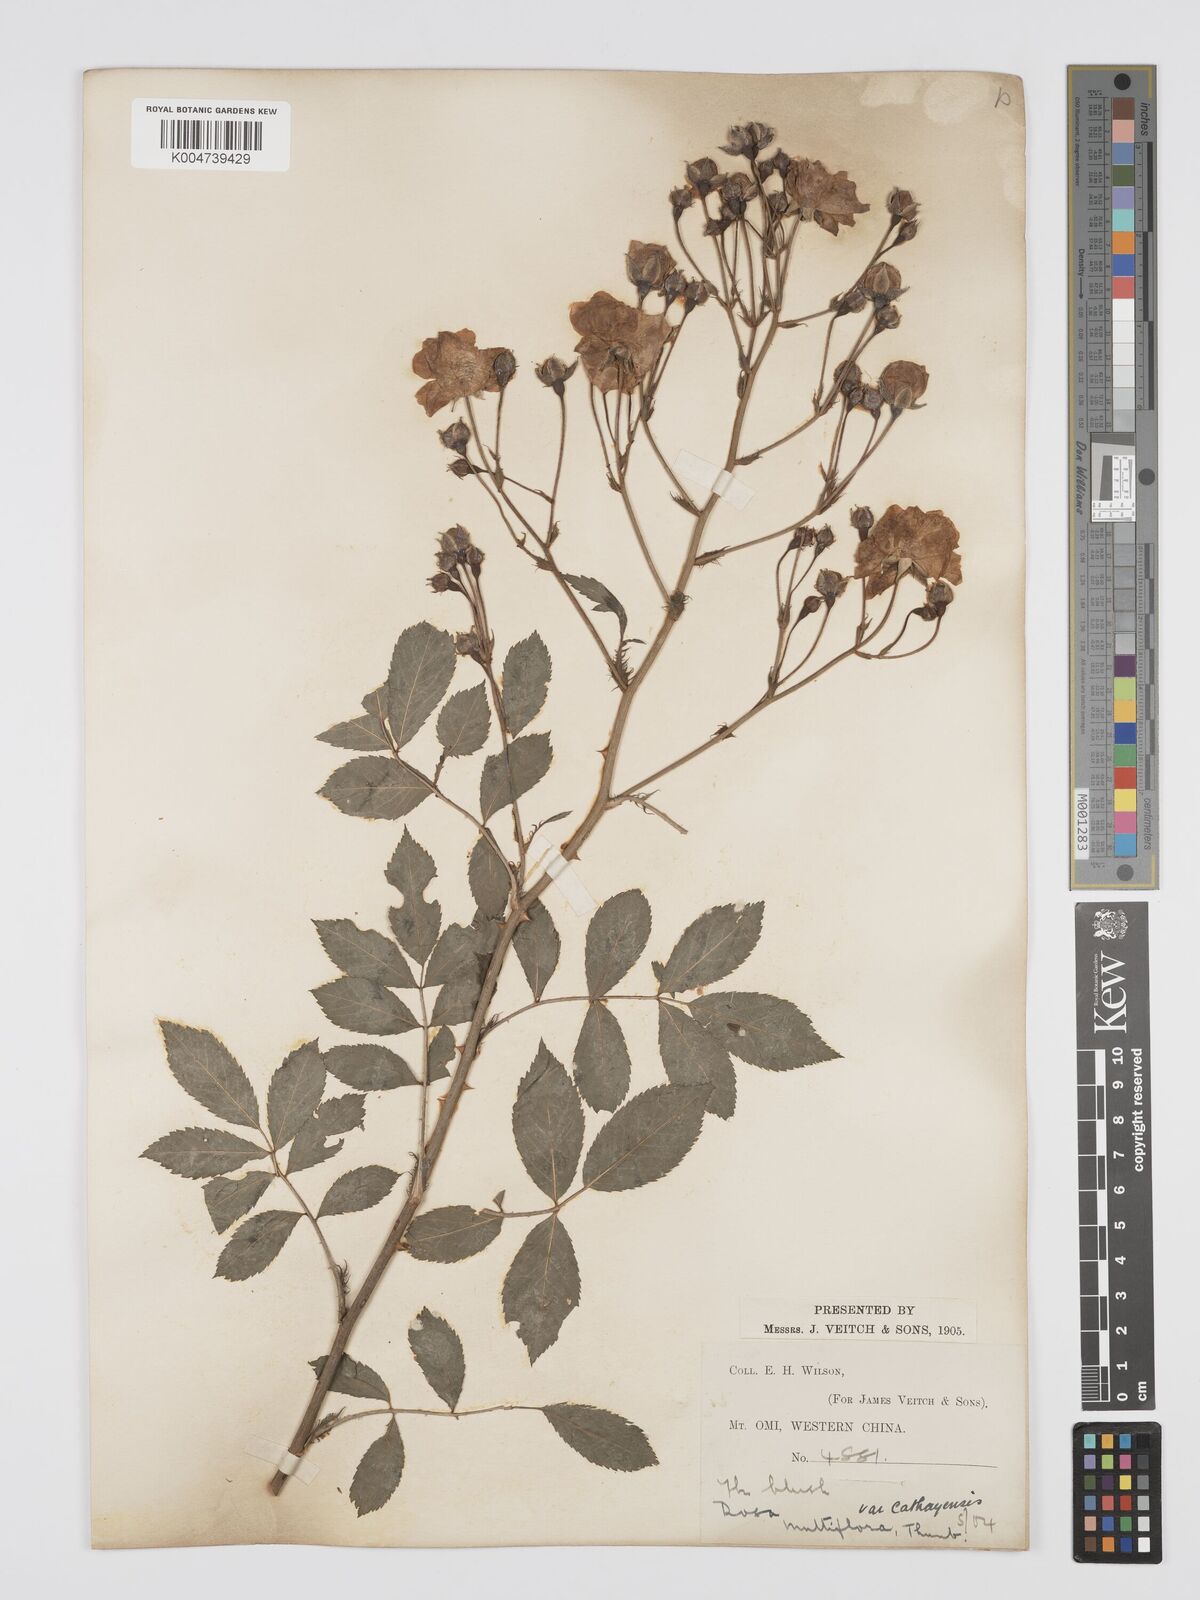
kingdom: Plantae
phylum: Tracheophyta
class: Magnoliopsida
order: Rosales
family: Rosaceae
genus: Rosa
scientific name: Rosa multiflora
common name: Multiflora rose
